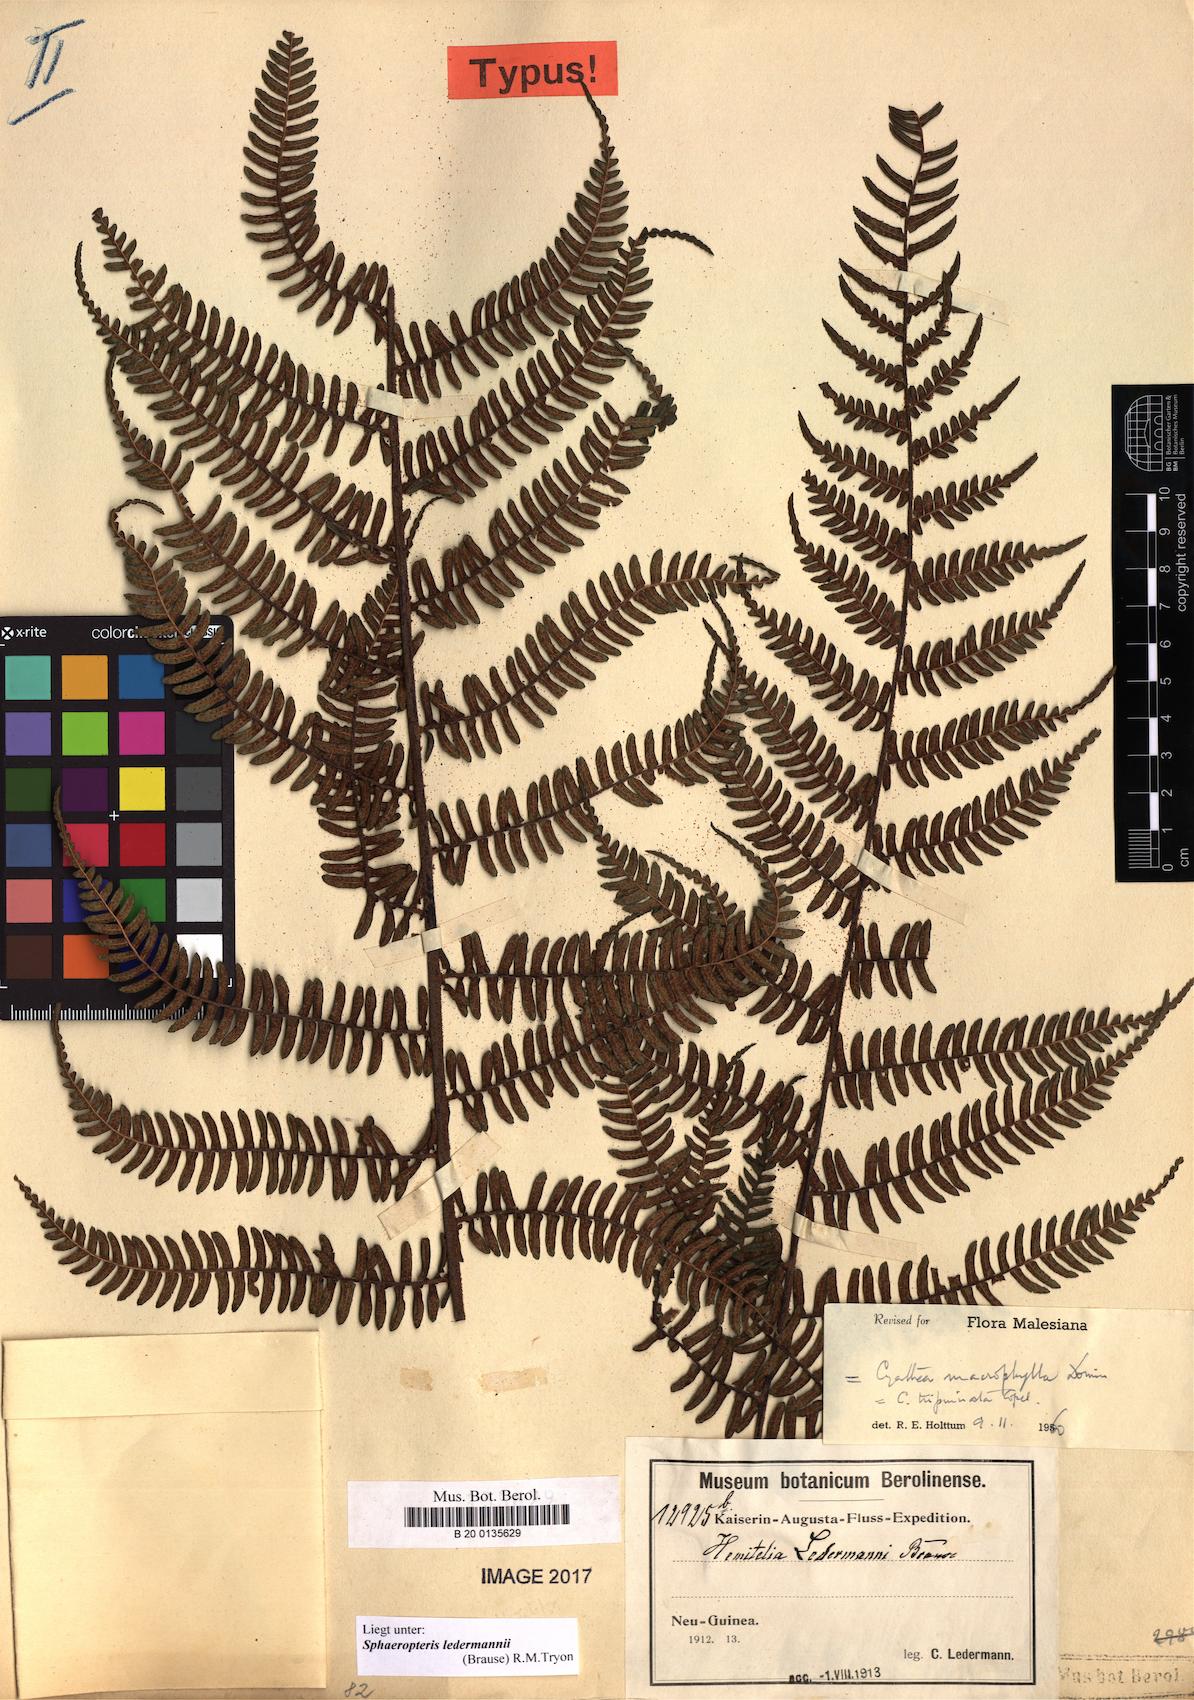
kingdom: Plantae
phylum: Tracheophyta
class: Polypodiopsida
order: Cyatheales
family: Cyatheaceae
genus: Sphaeropteris
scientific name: Sphaeropteris ledermannii
